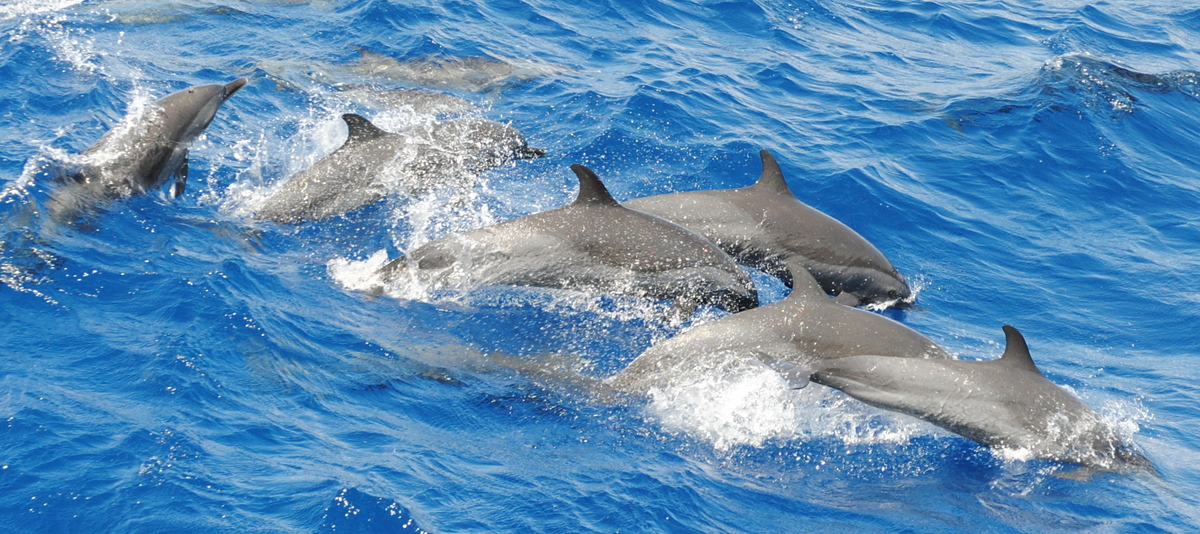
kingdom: Animalia
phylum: Chordata
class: Mammalia
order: Cetacea
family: Delphinidae
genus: Stenella
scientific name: Stenella attenuata
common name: Pantropical Spotted Dolphin
